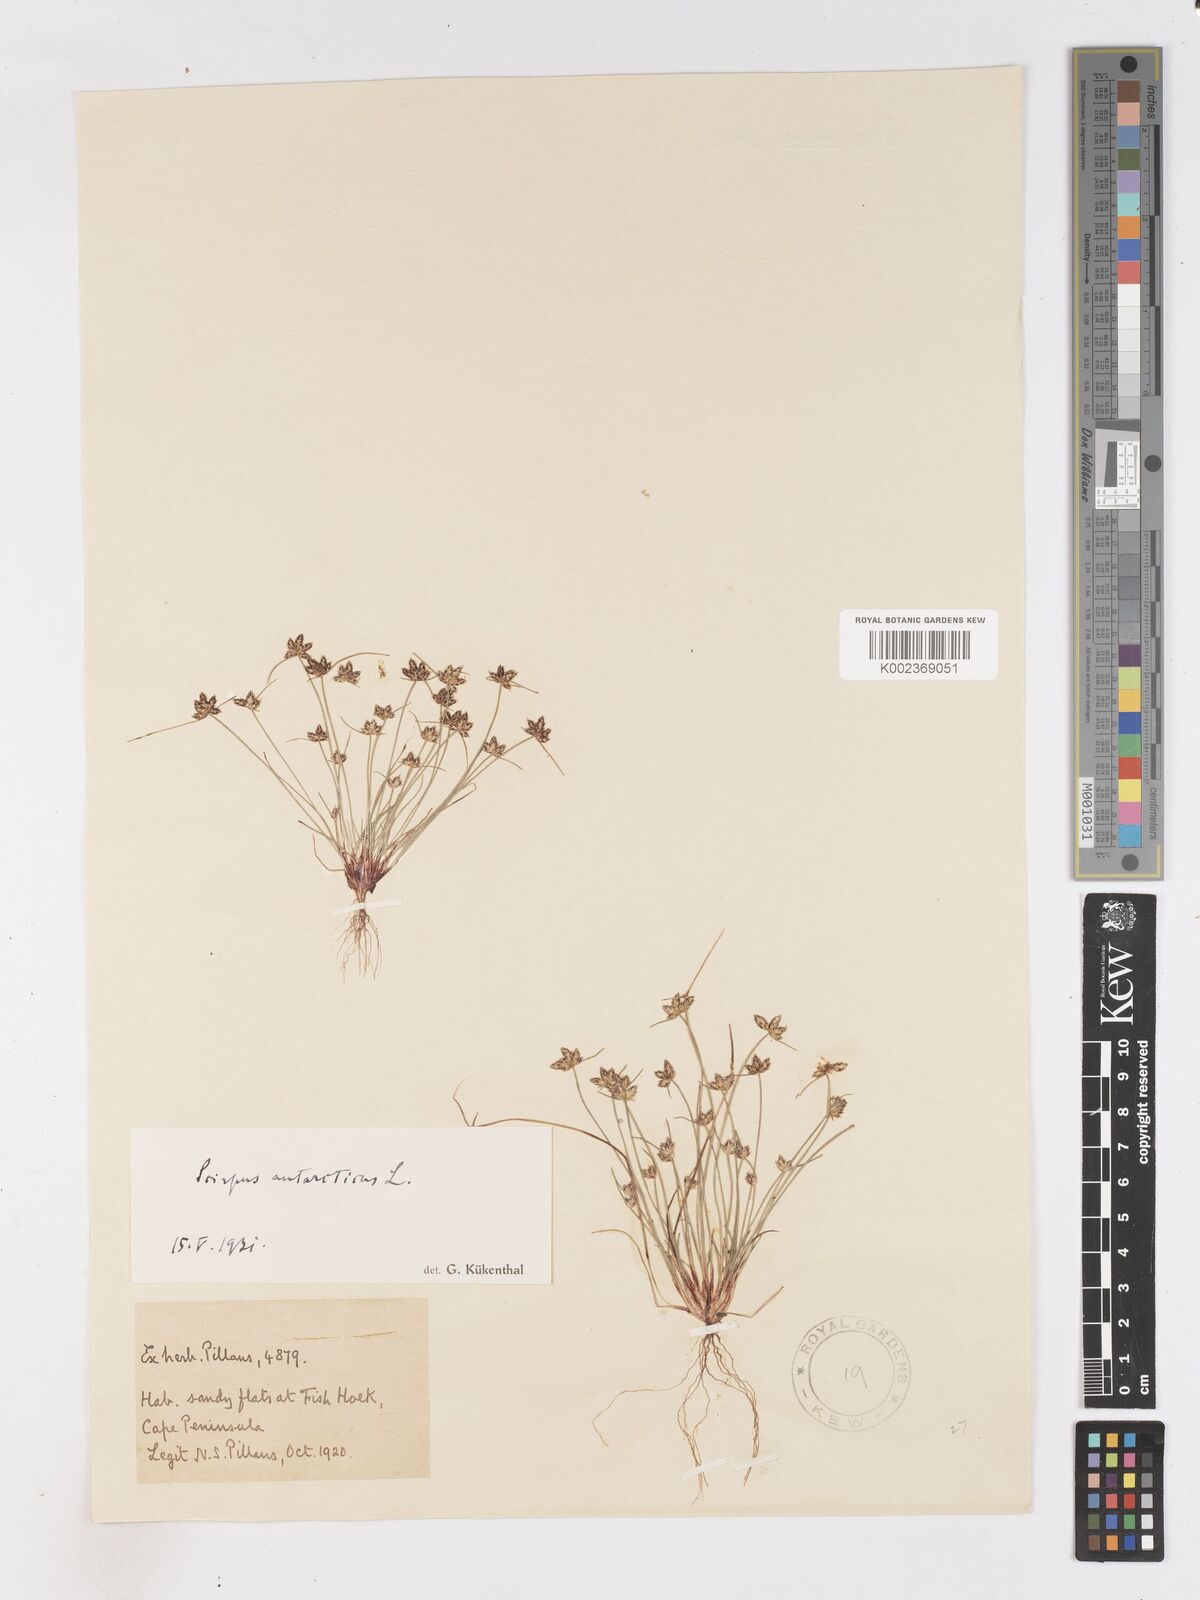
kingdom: Plantae
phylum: Tracheophyta
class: Liliopsida
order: Poales
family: Cyperaceae
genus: Isolepis
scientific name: Isolepis diabolica
